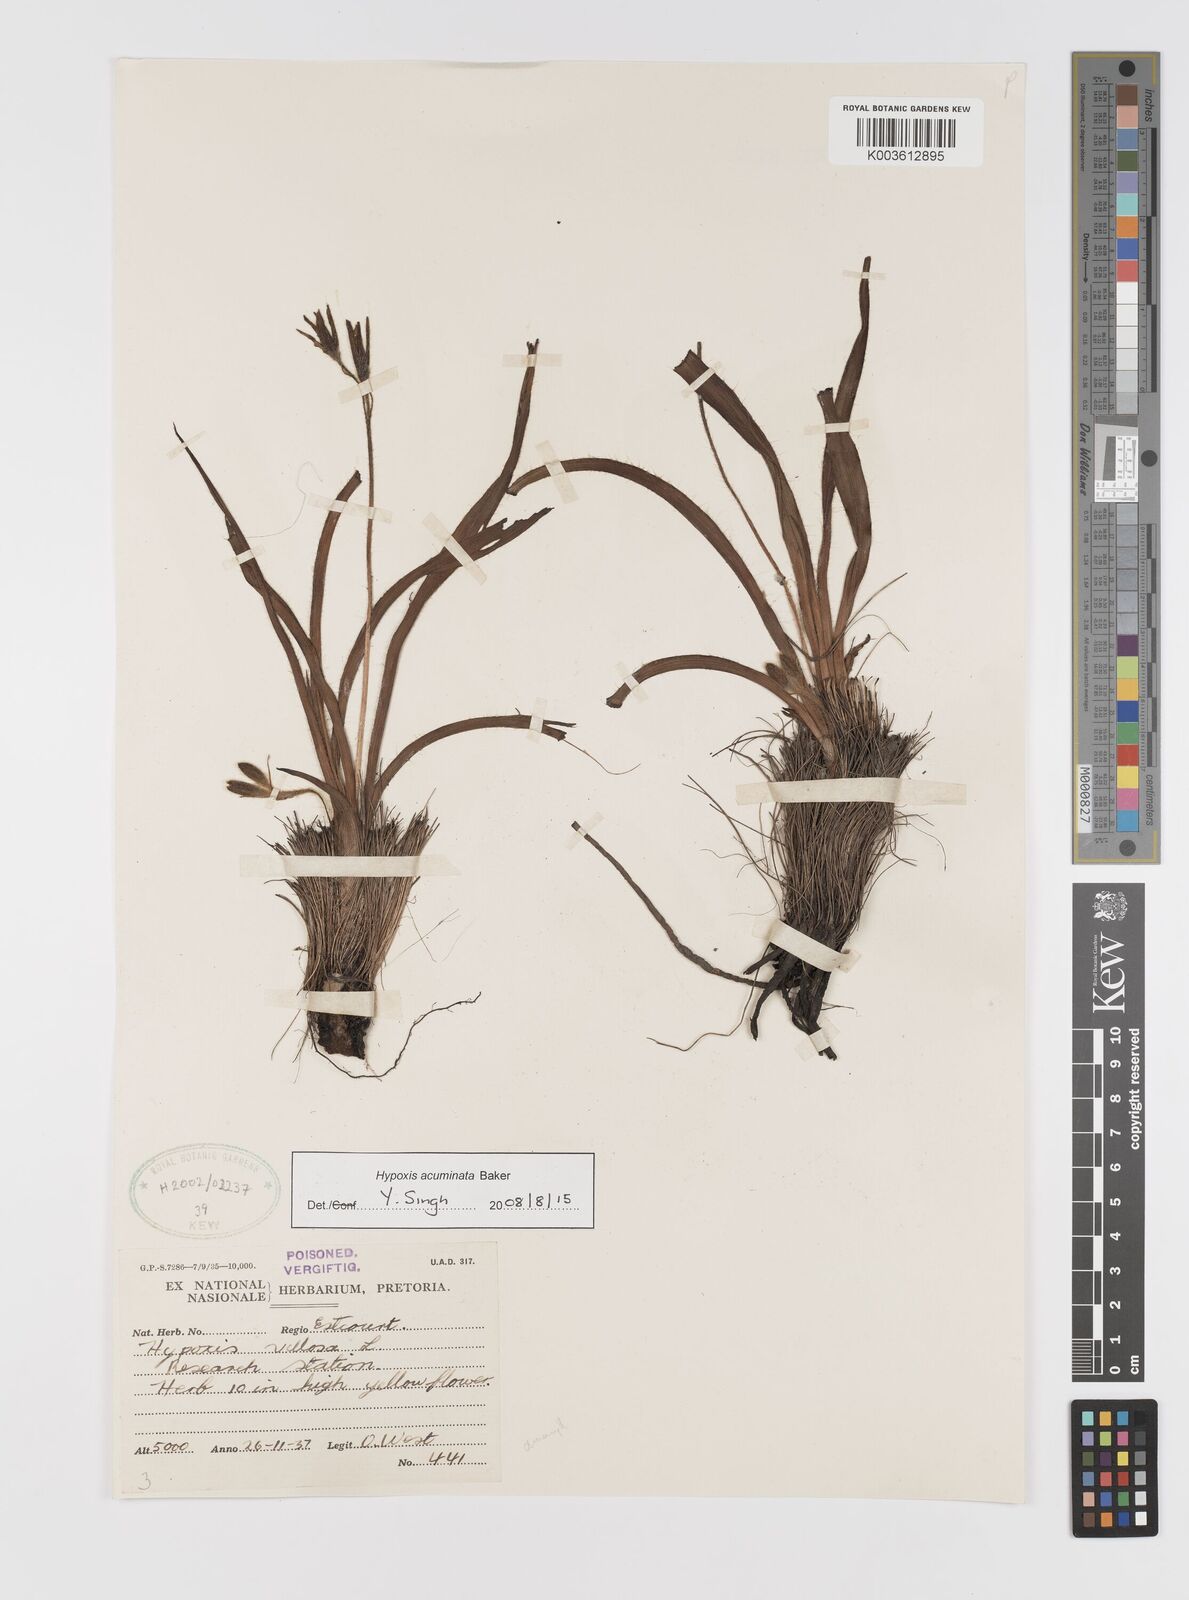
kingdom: Plantae
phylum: Tracheophyta
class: Liliopsida
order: Asparagales
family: Hypoxidaceae
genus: Hypoxis
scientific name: Hypoxis acuminata
